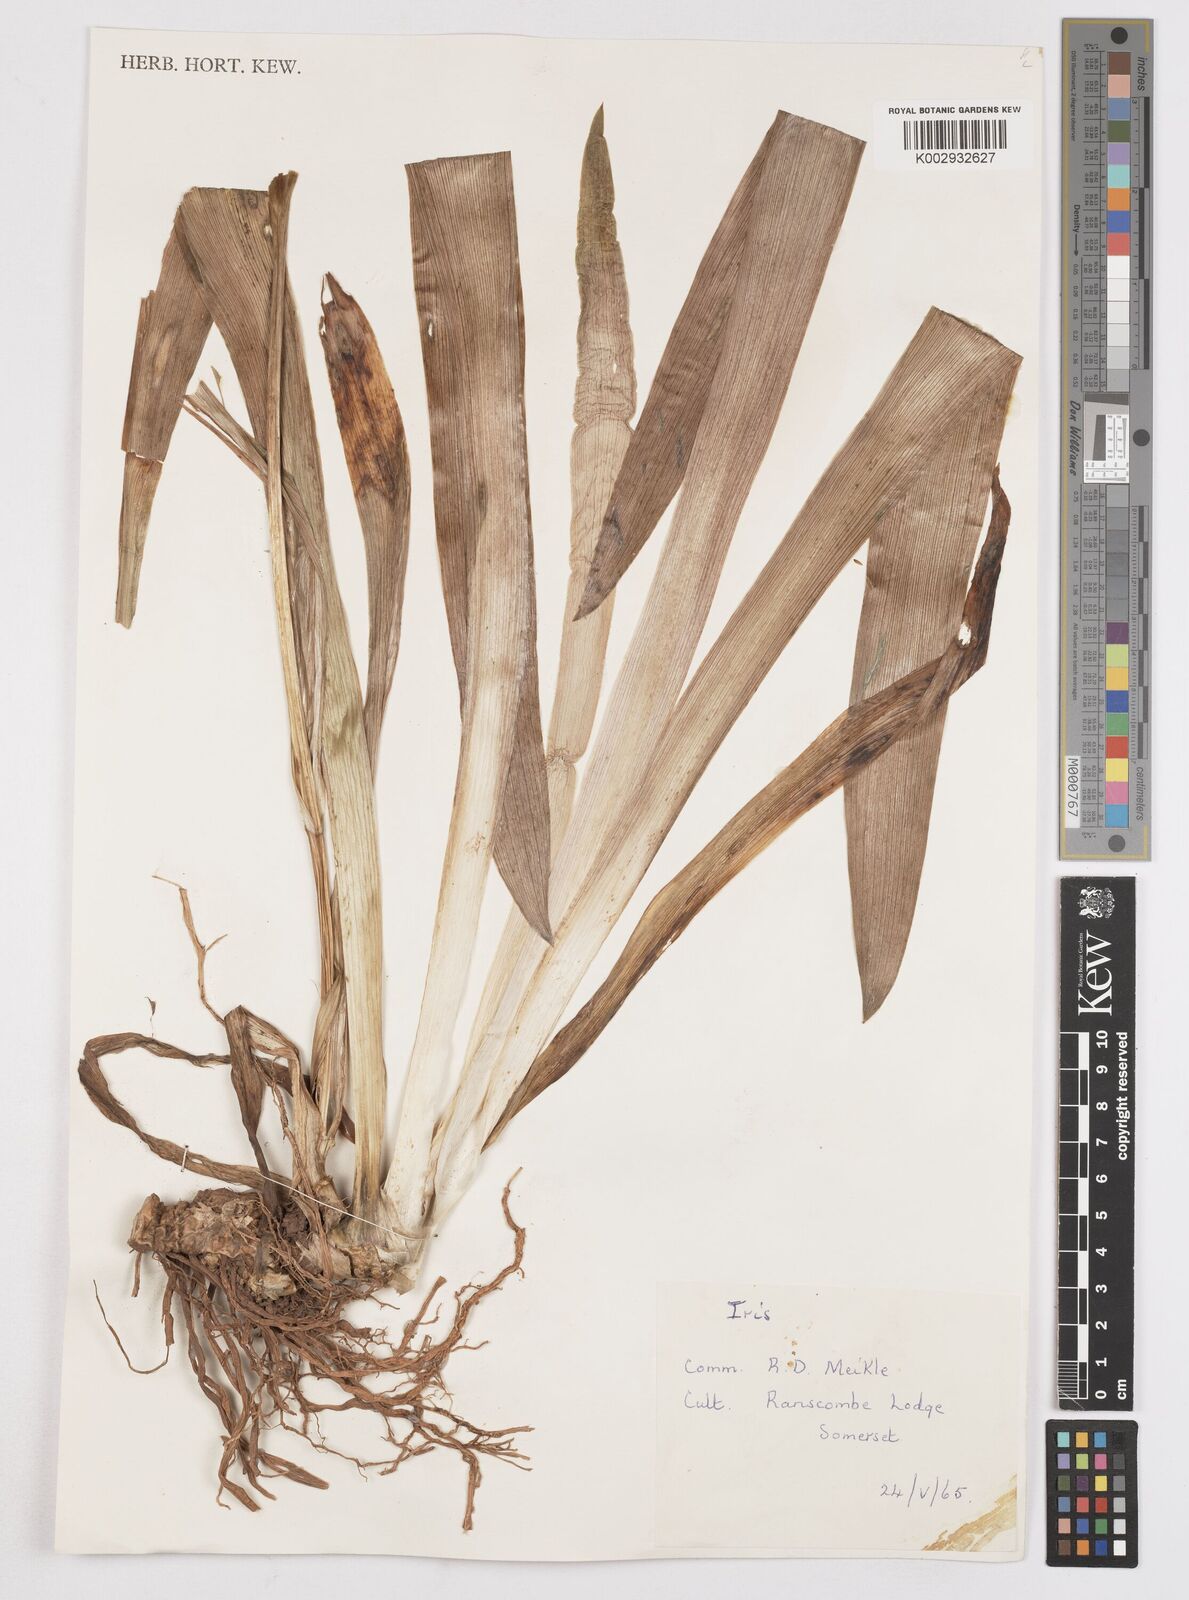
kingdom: Plantae
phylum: Tracheophyta
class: Liliopsida
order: Asparagales
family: Iridaceae
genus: Iris
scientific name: Iris
